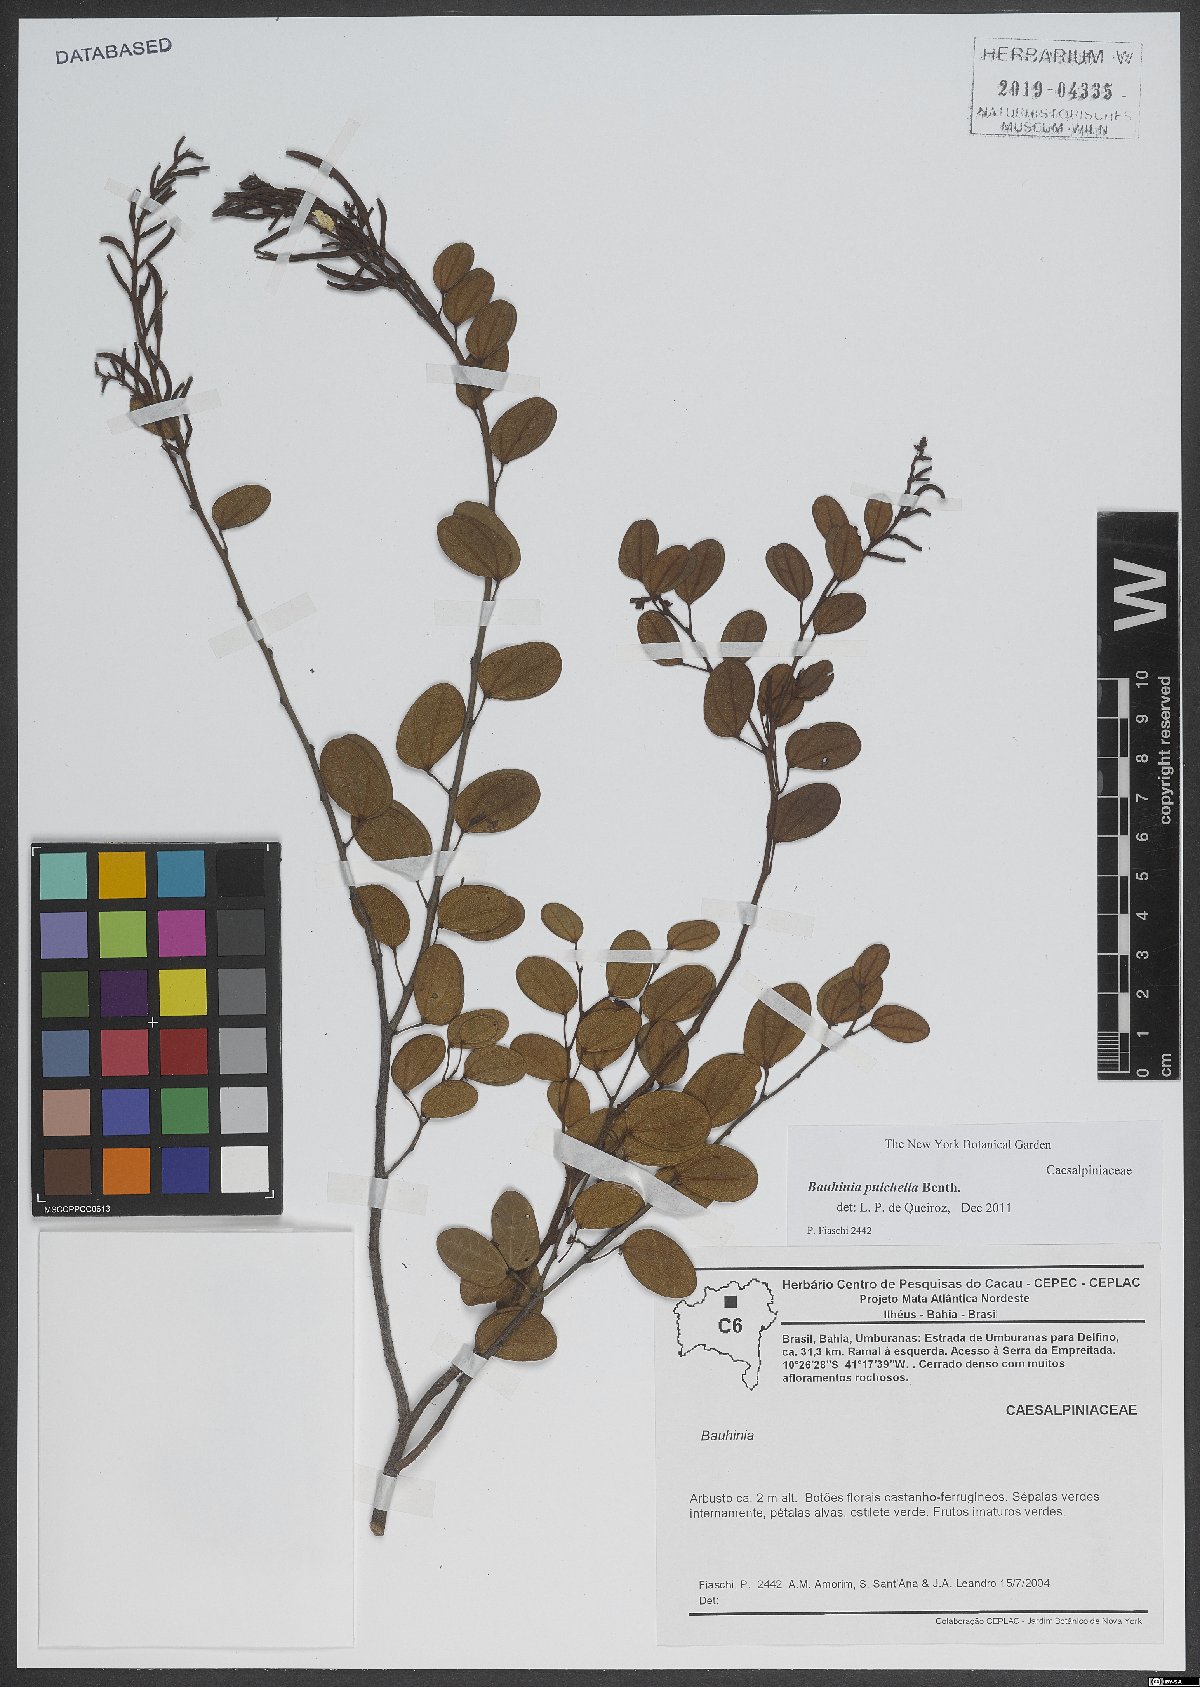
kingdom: Plantae
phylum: Tracheophyta
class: Magnoliopsida
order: Fabales
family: Fabaceae
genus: Bauhinia
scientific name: Bauhinia pulchella
